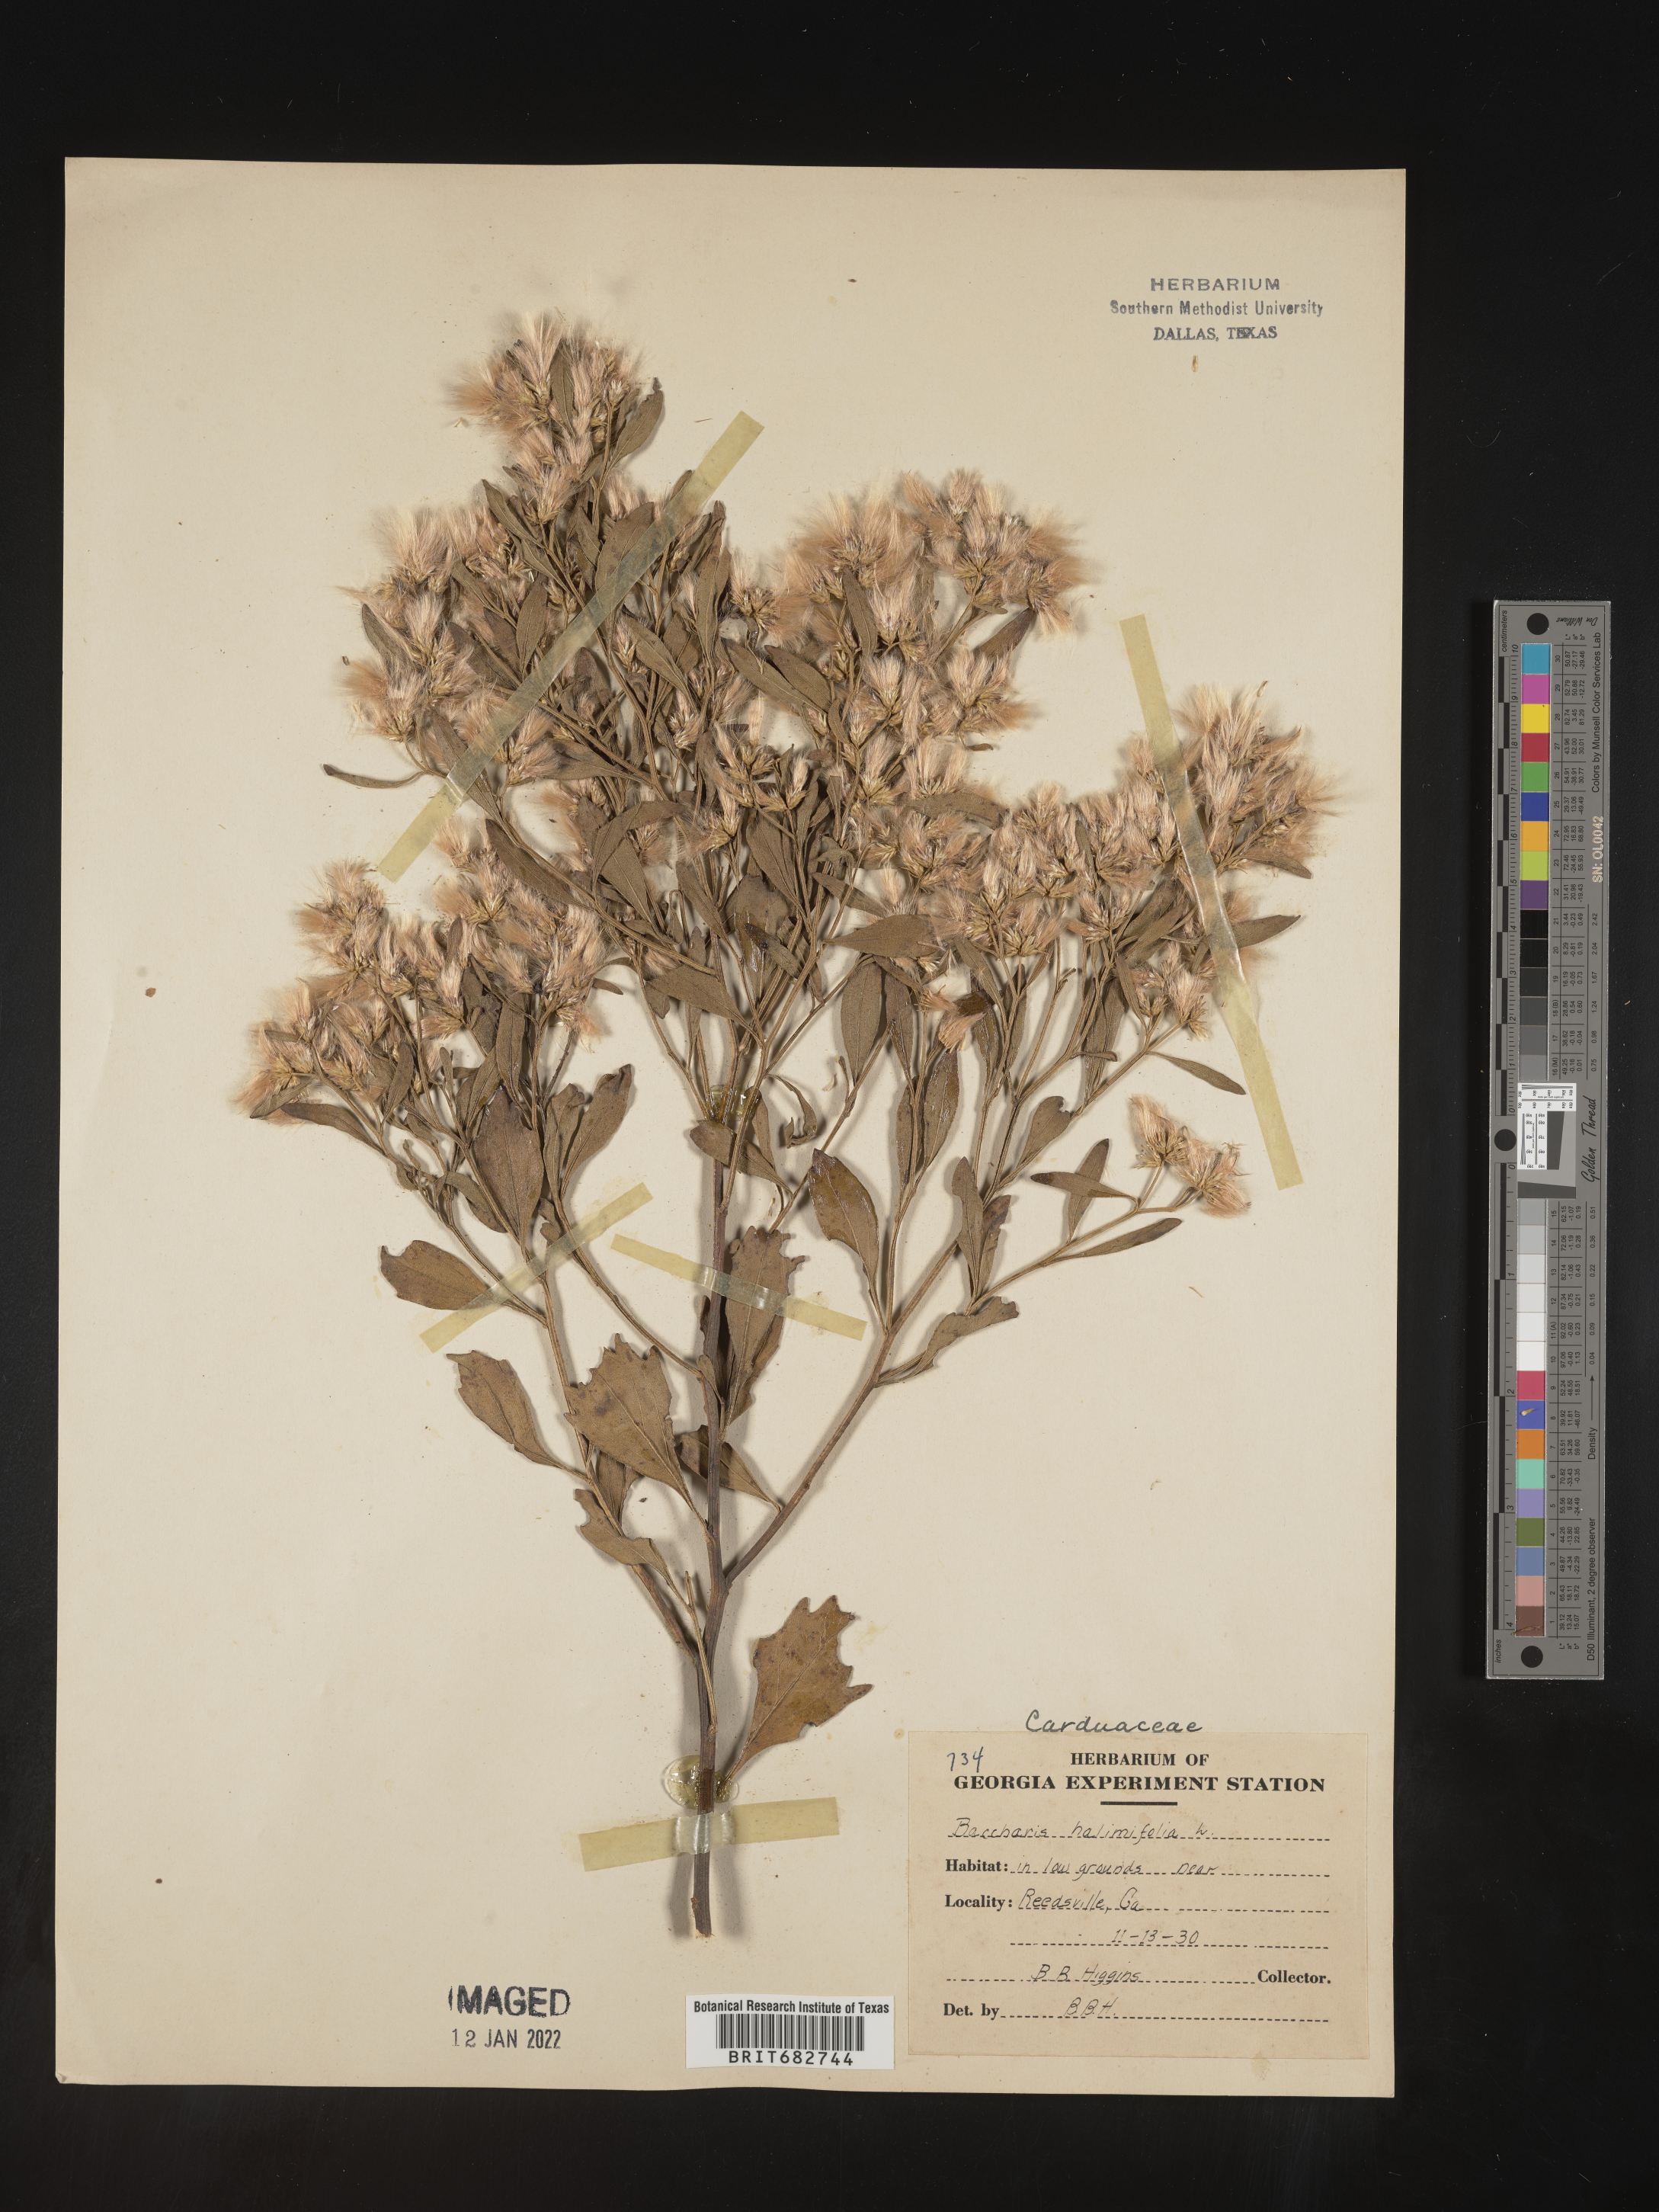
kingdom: Plantae
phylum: Tracheophyta
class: Magnoliopsida
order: Asterales
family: Asteraceae
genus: Nidorella
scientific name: Nidorella ivifolia
